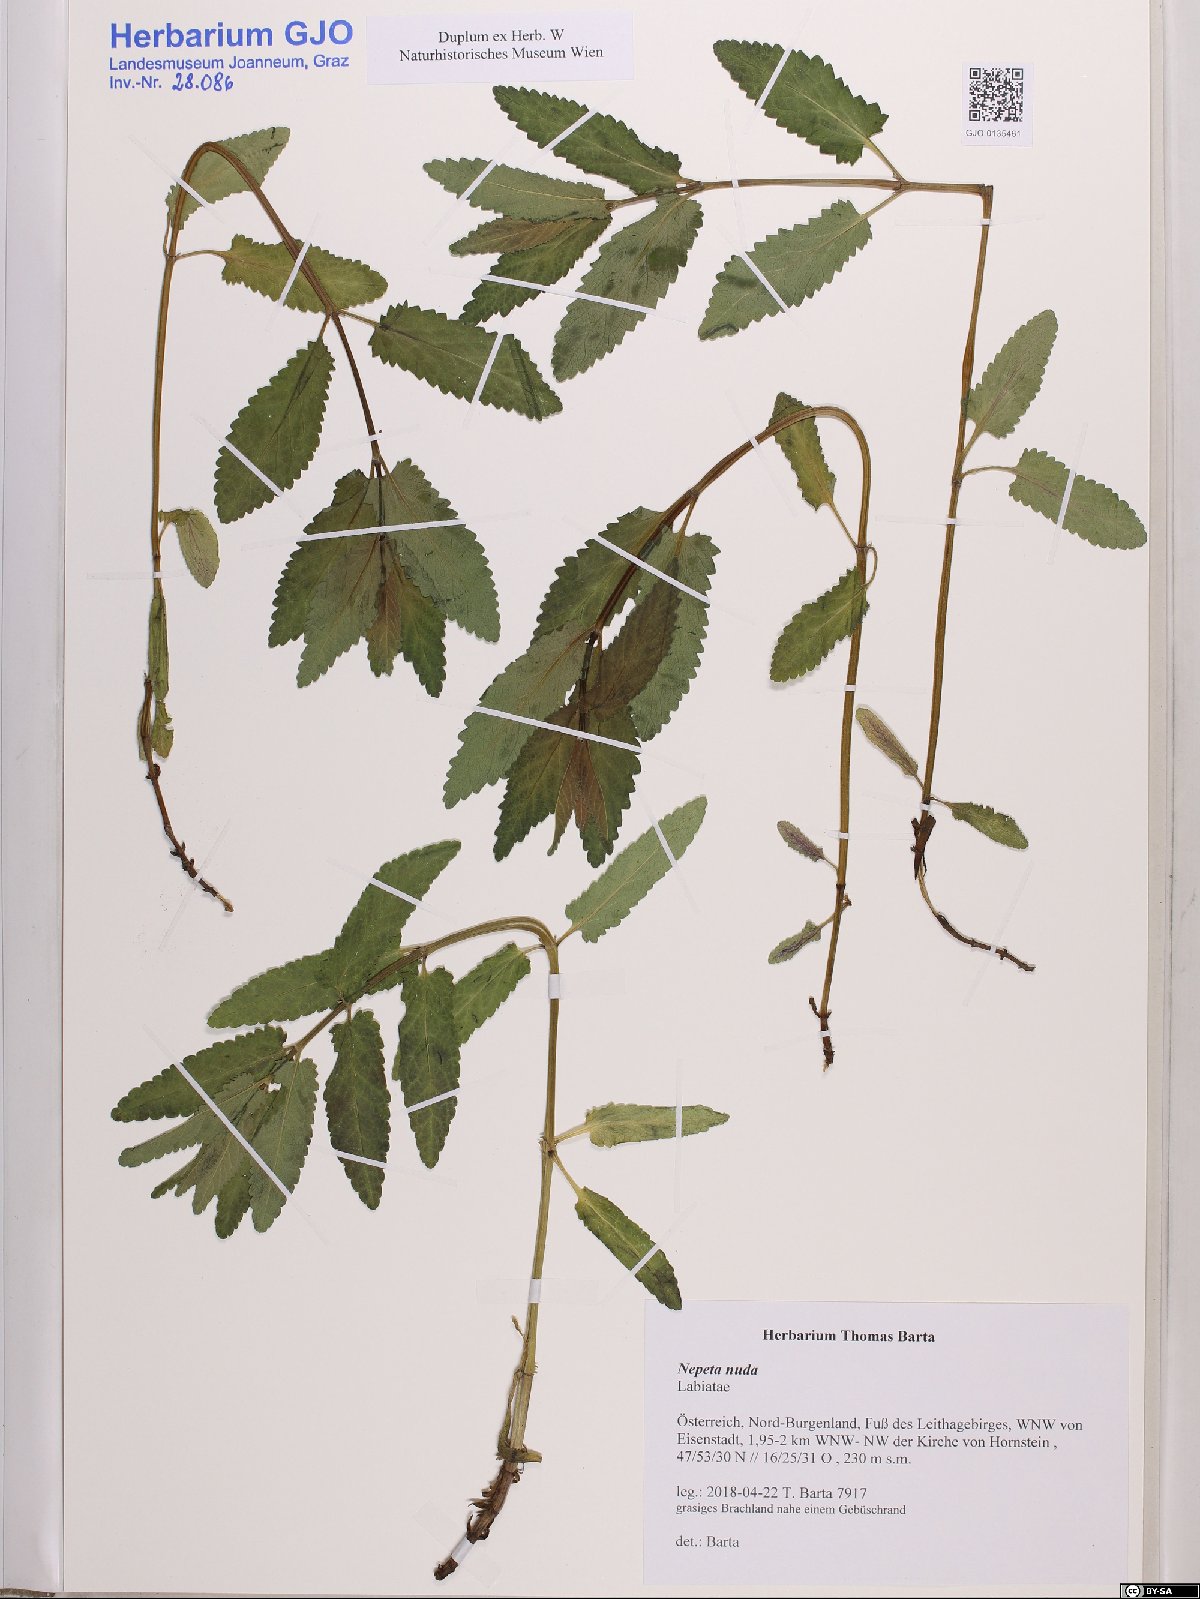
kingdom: Plantae
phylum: Tracheophyta
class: Magnoliopsida
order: Lamiales
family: Lamiaceae
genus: Nepeta
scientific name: Nepeta nuda
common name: Hairless catmint
